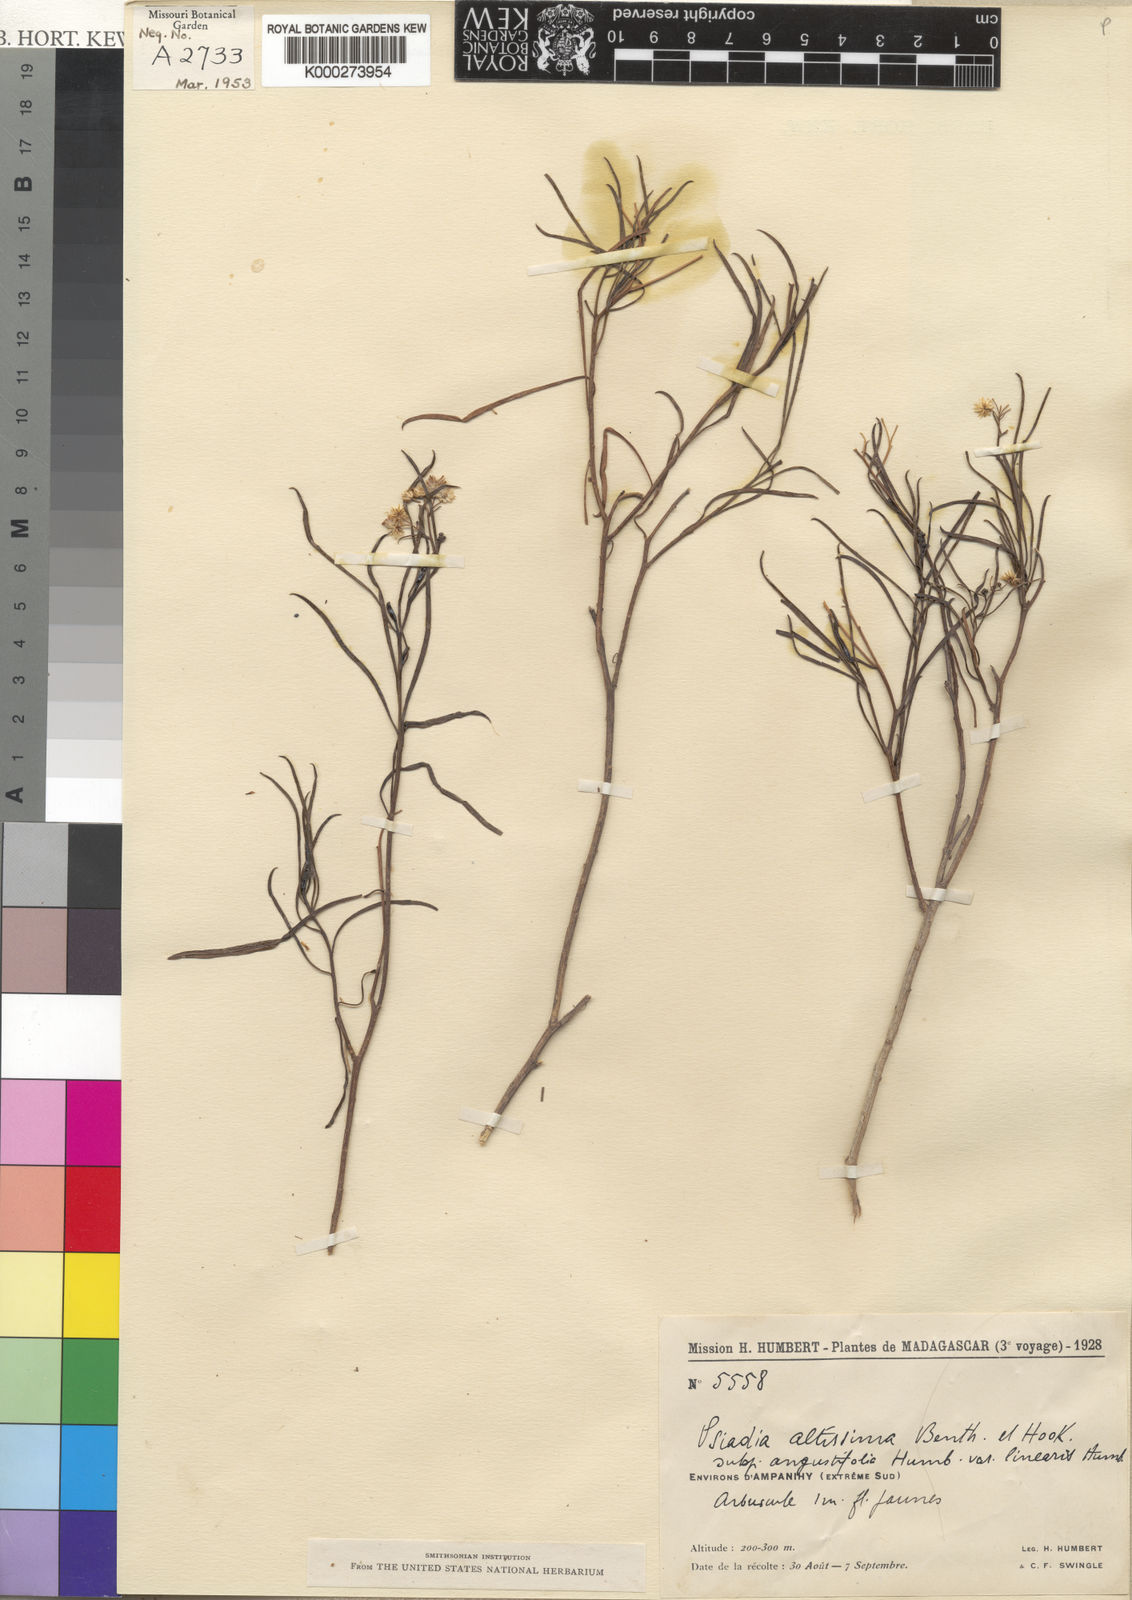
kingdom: Plantae
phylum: Tracheophyta
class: Magnoliopsida
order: Asterales
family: Asteraceae
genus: Psiadia
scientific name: Psiadia altissima
